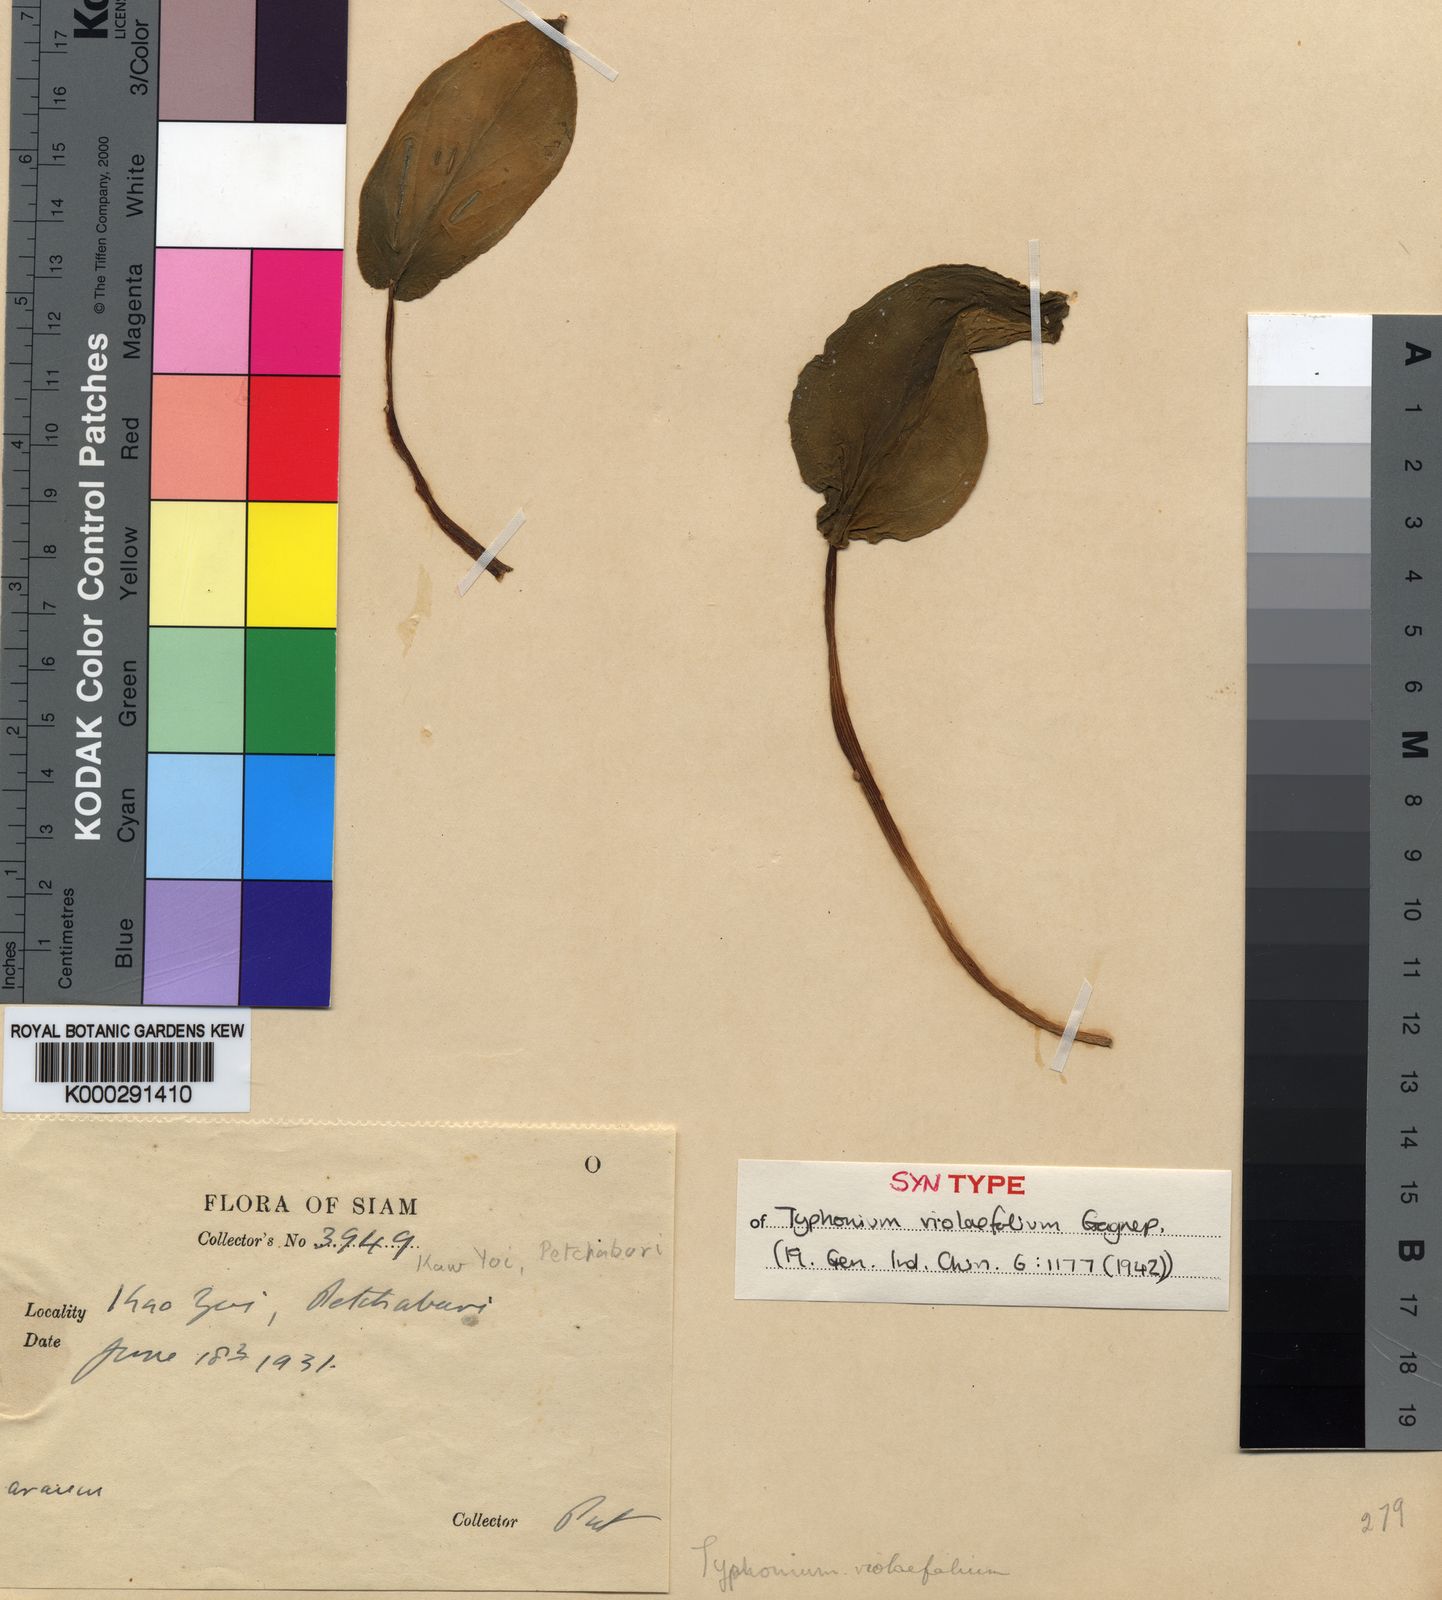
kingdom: Plantae
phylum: Tracheophyta
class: Liliopsida
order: Alismatales
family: Araceae
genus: Typhonium
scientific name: Typhonium violifolium
